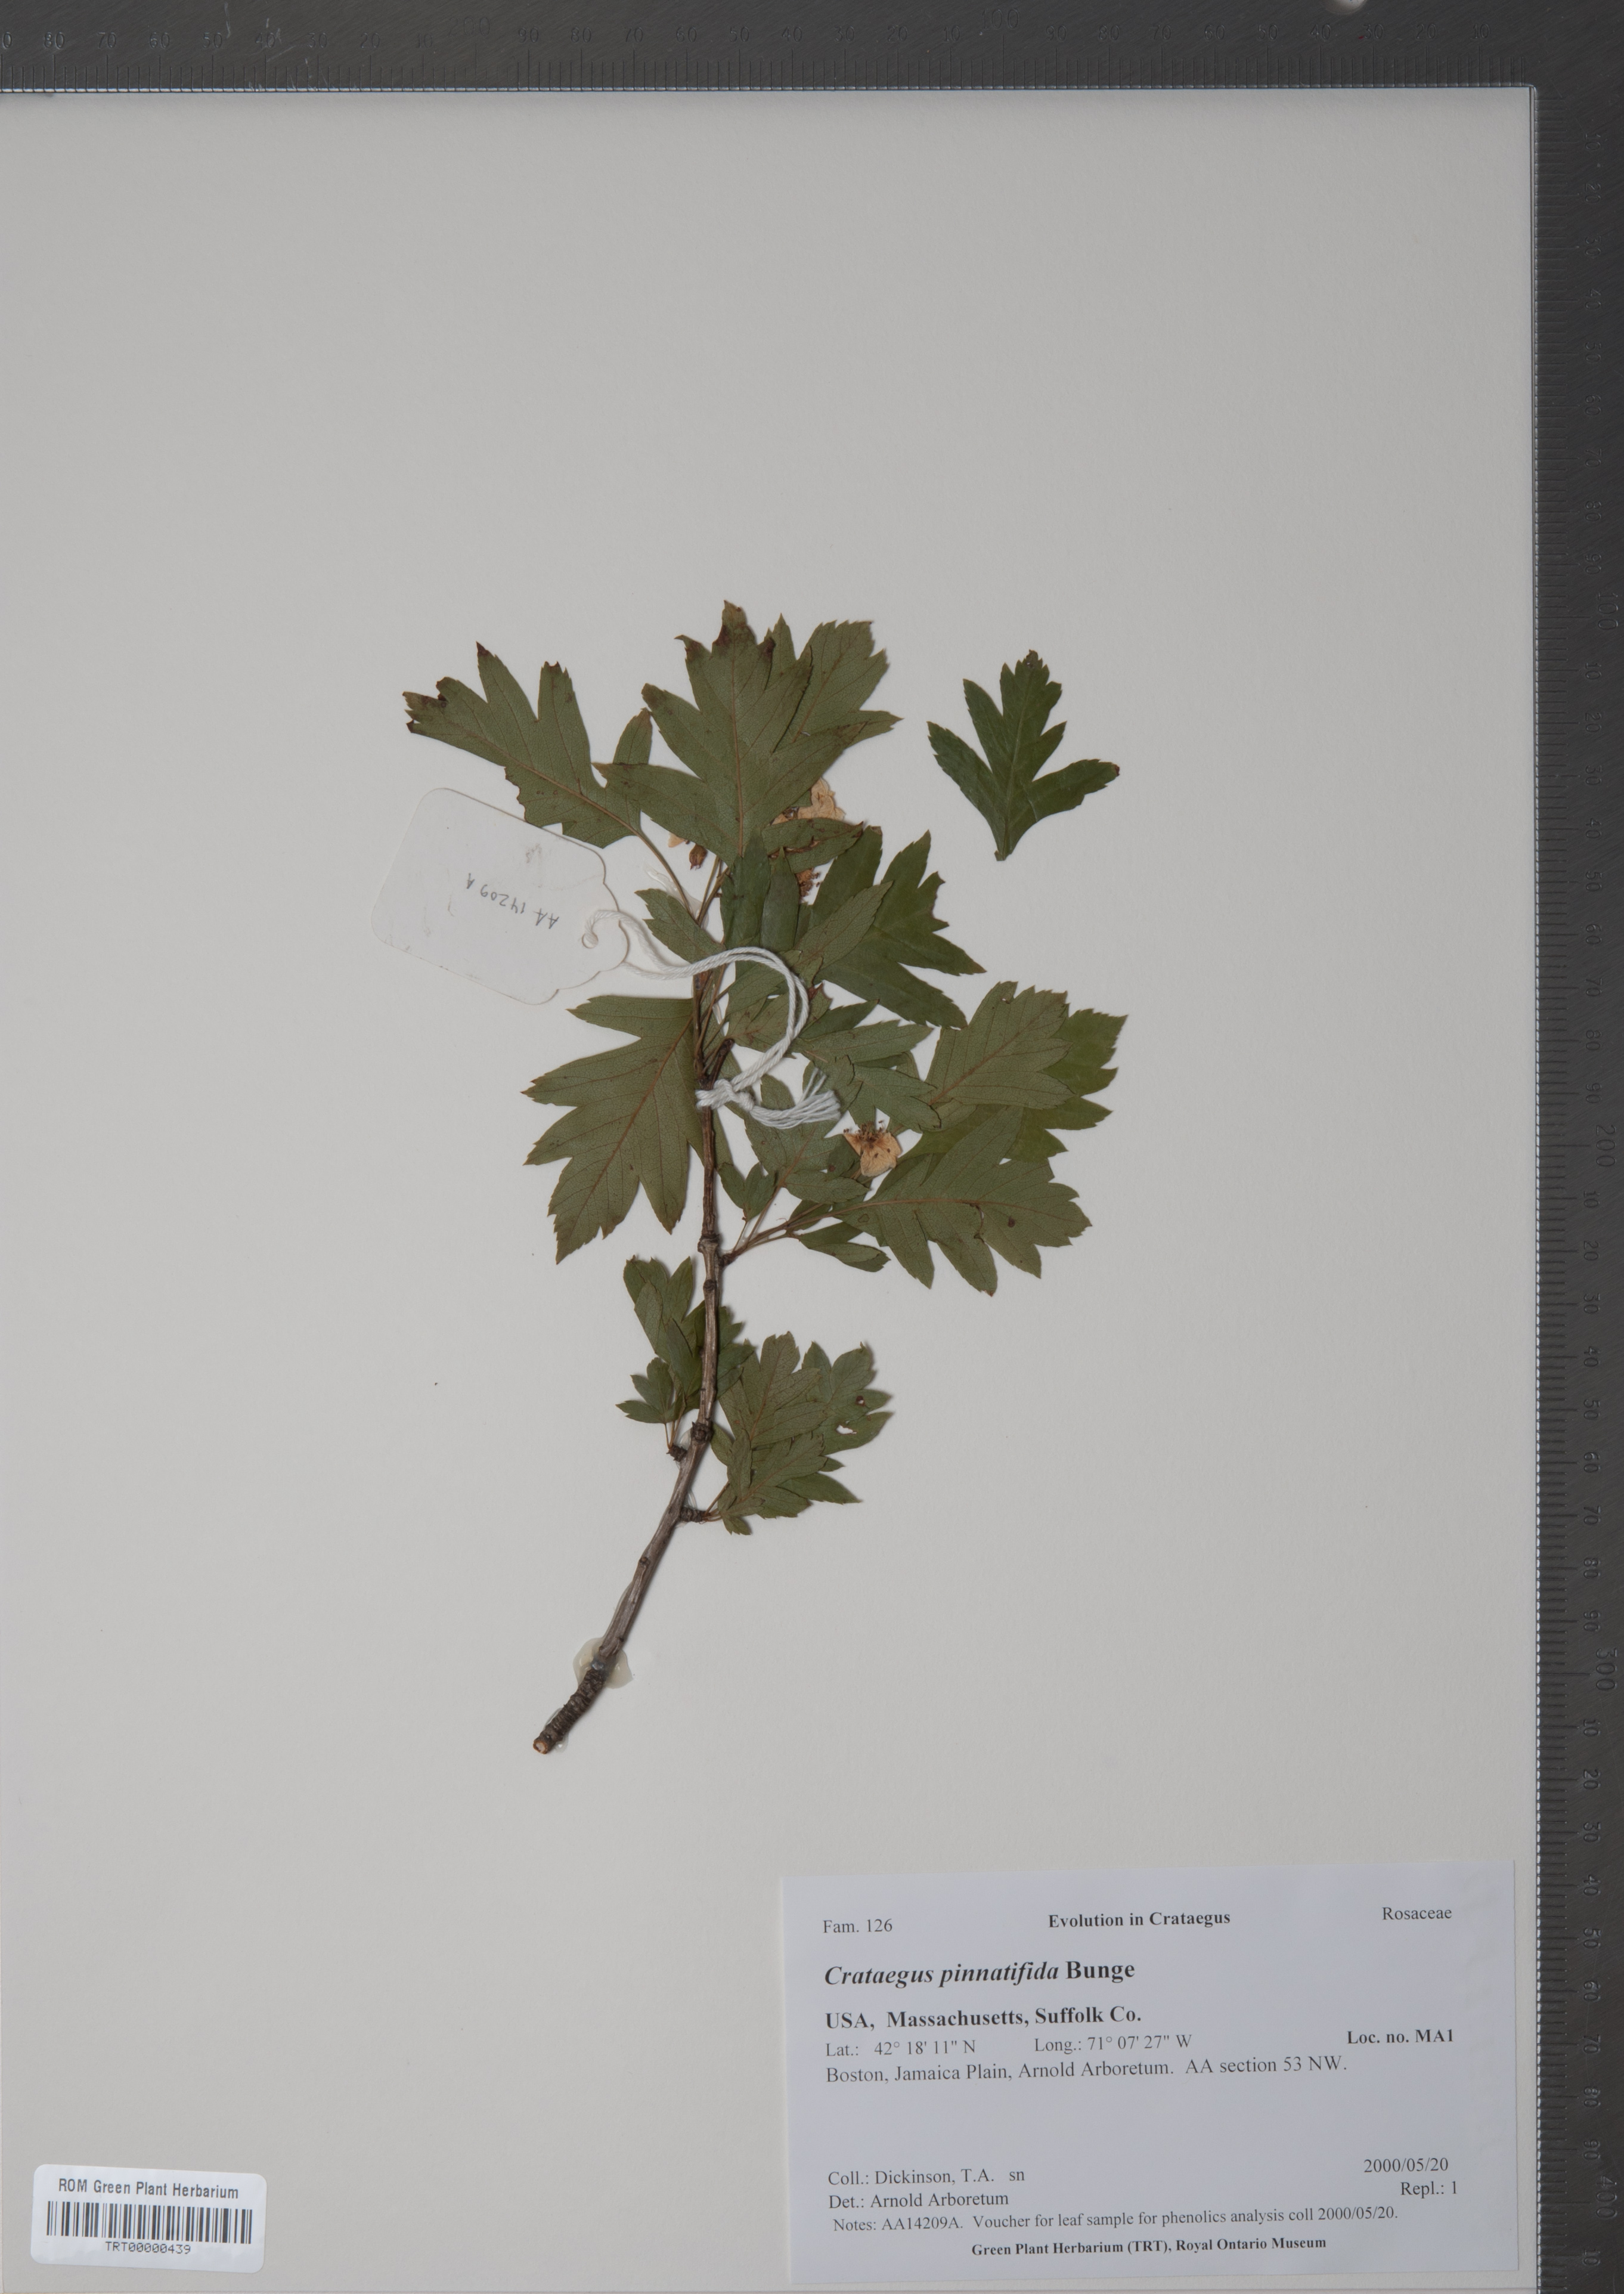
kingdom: Plantae
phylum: Tracheophyta
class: Magnoliopsida
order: Rosales
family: Rosaceae
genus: Crataegus
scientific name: Crataegus pinnatifida
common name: Chinese haw
